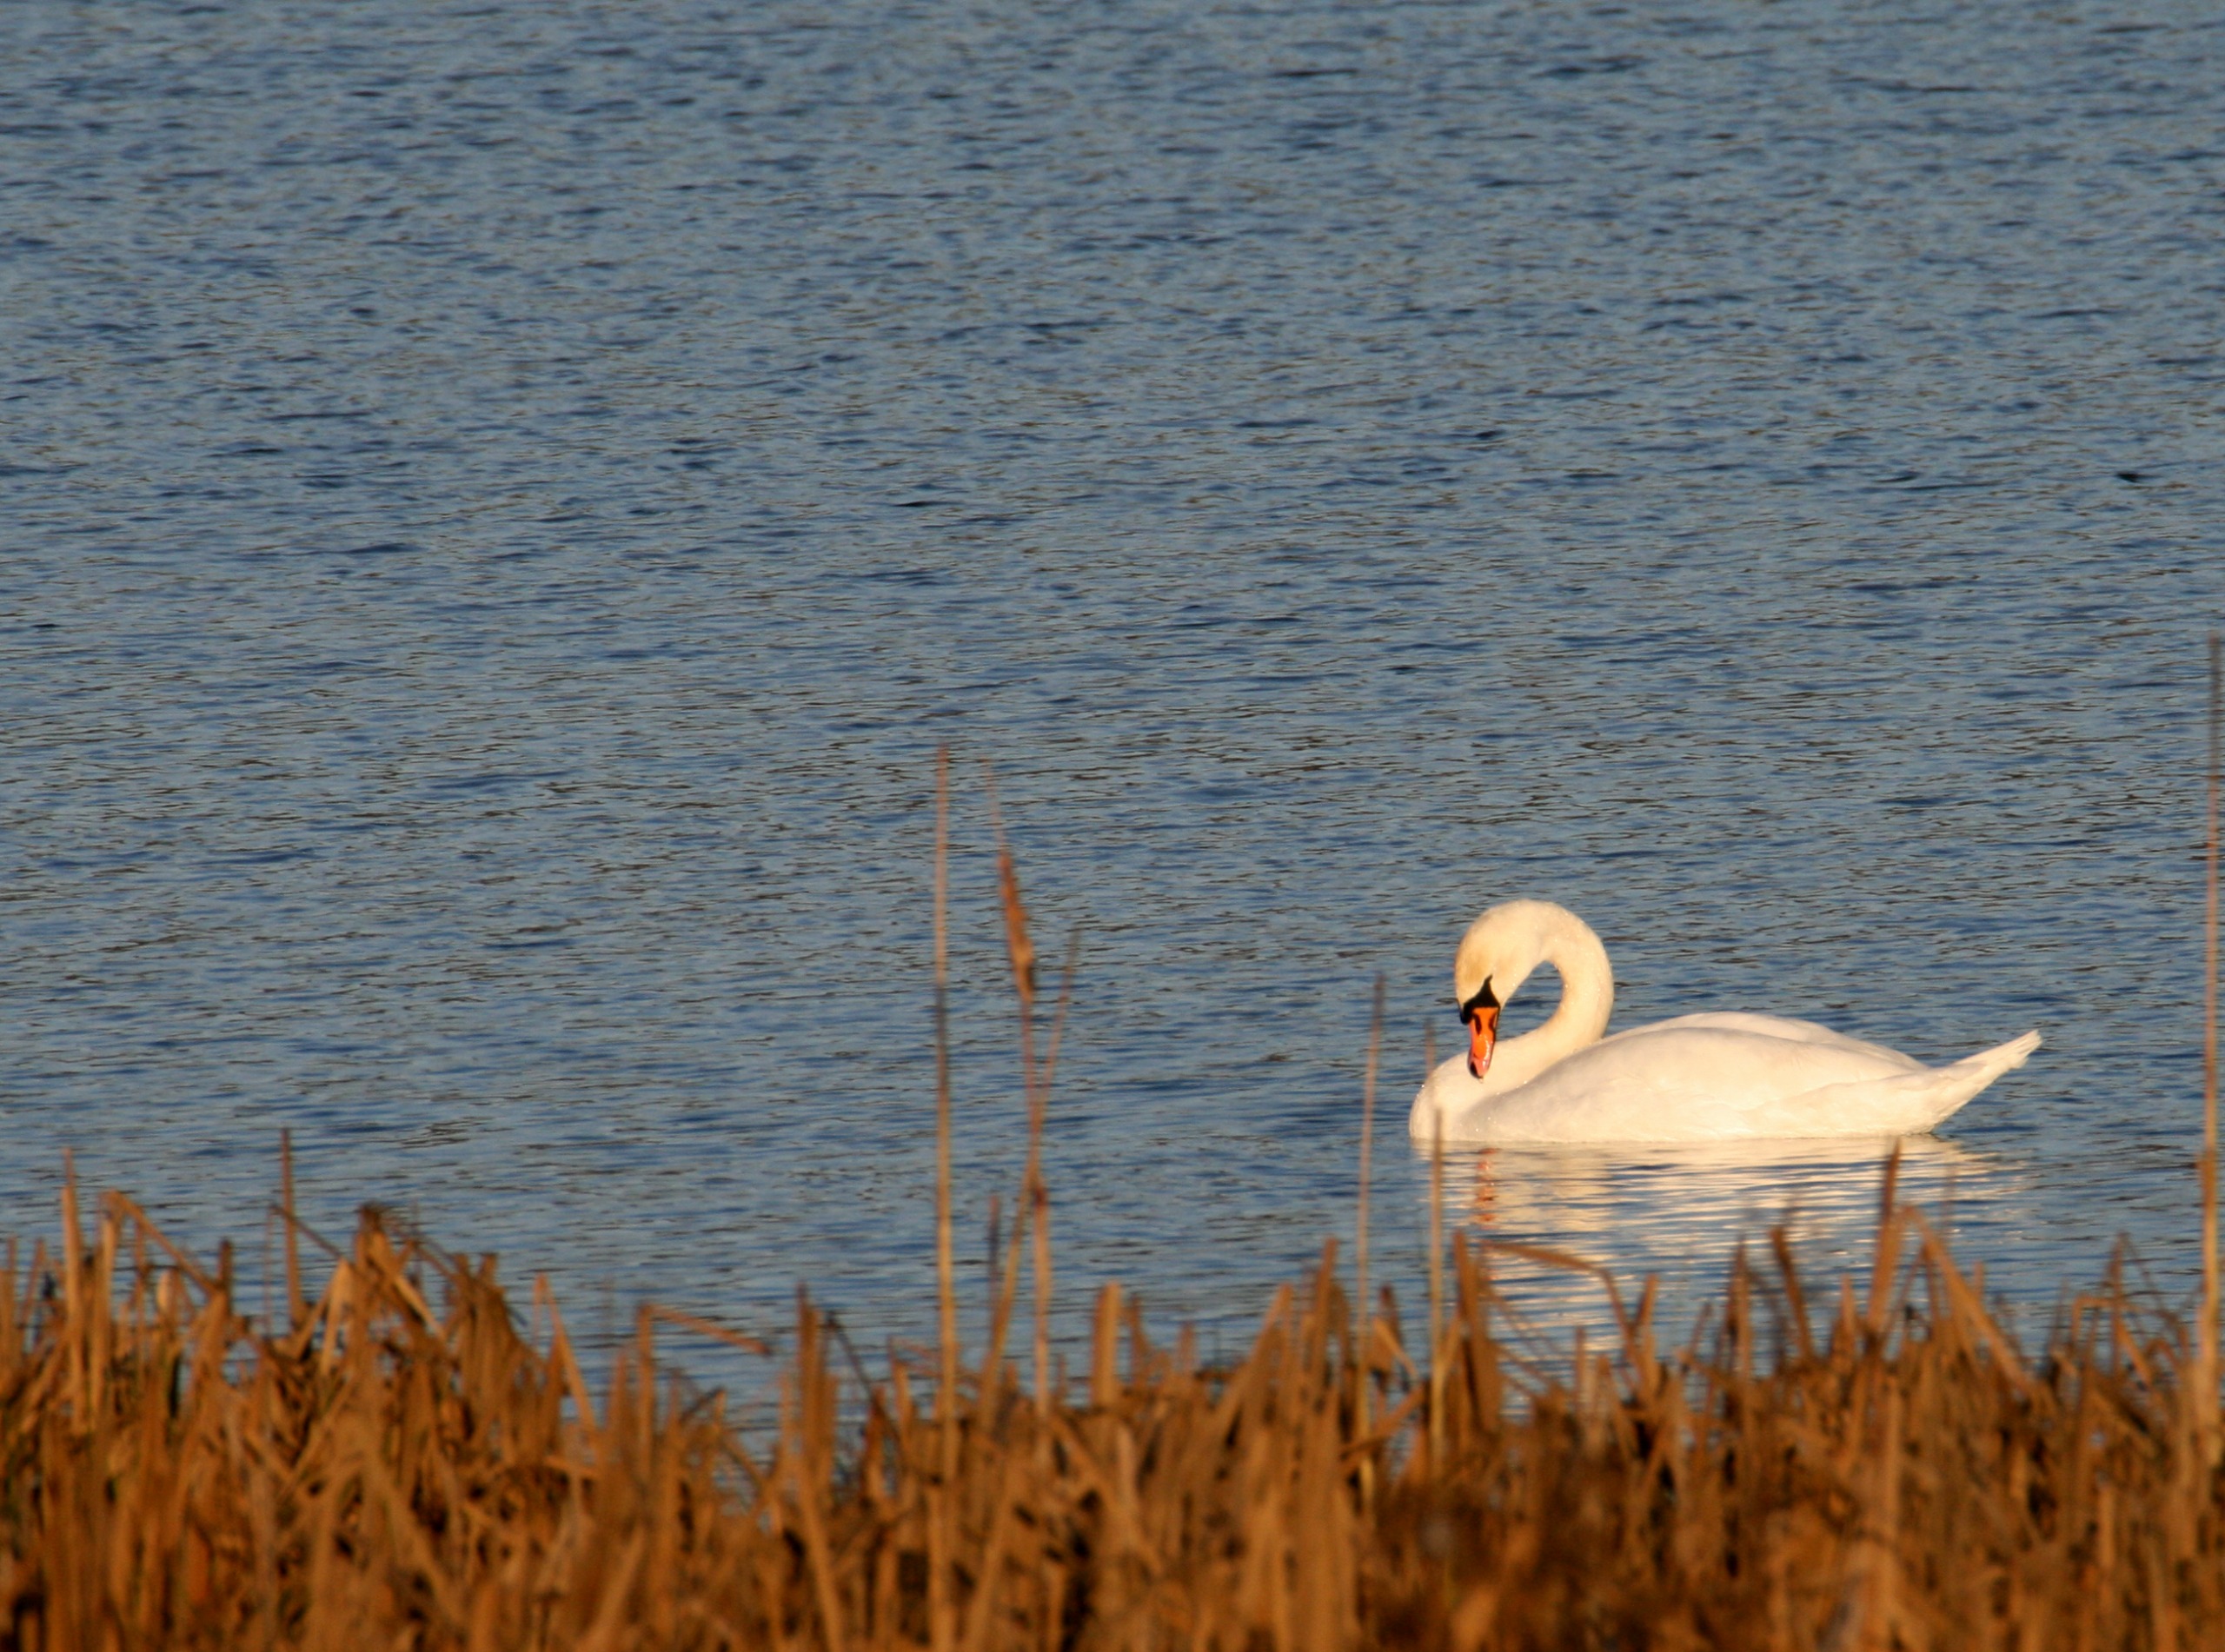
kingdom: Animalia
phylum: Chordata
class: Aves
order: Anseriformes
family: Anatidae
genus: Cygnus
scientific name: Cygnus olor
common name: Knopsvane
